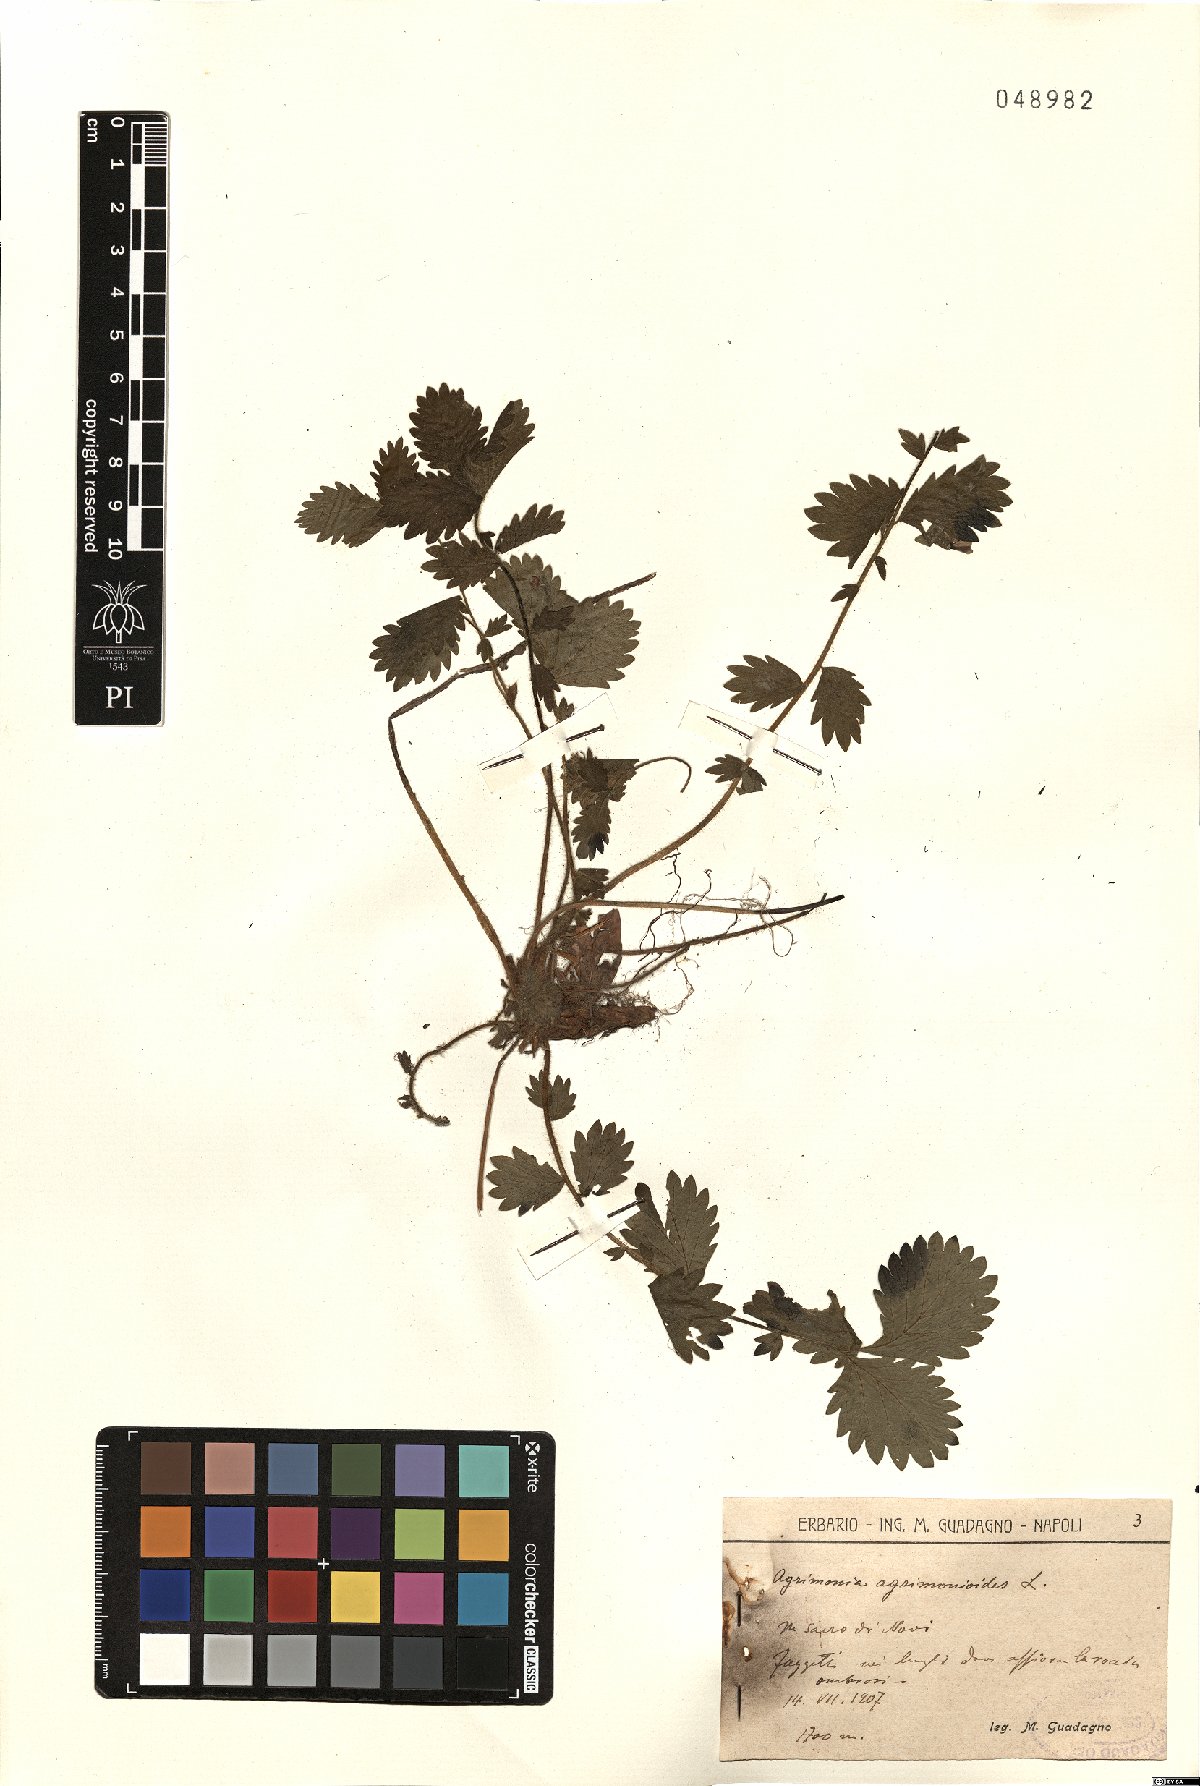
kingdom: Plantae
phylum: Tracheophyta
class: Magnoliopsida
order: Rosales
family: Rosaceae
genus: Aremonia
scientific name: Aremonia agrimonoides
